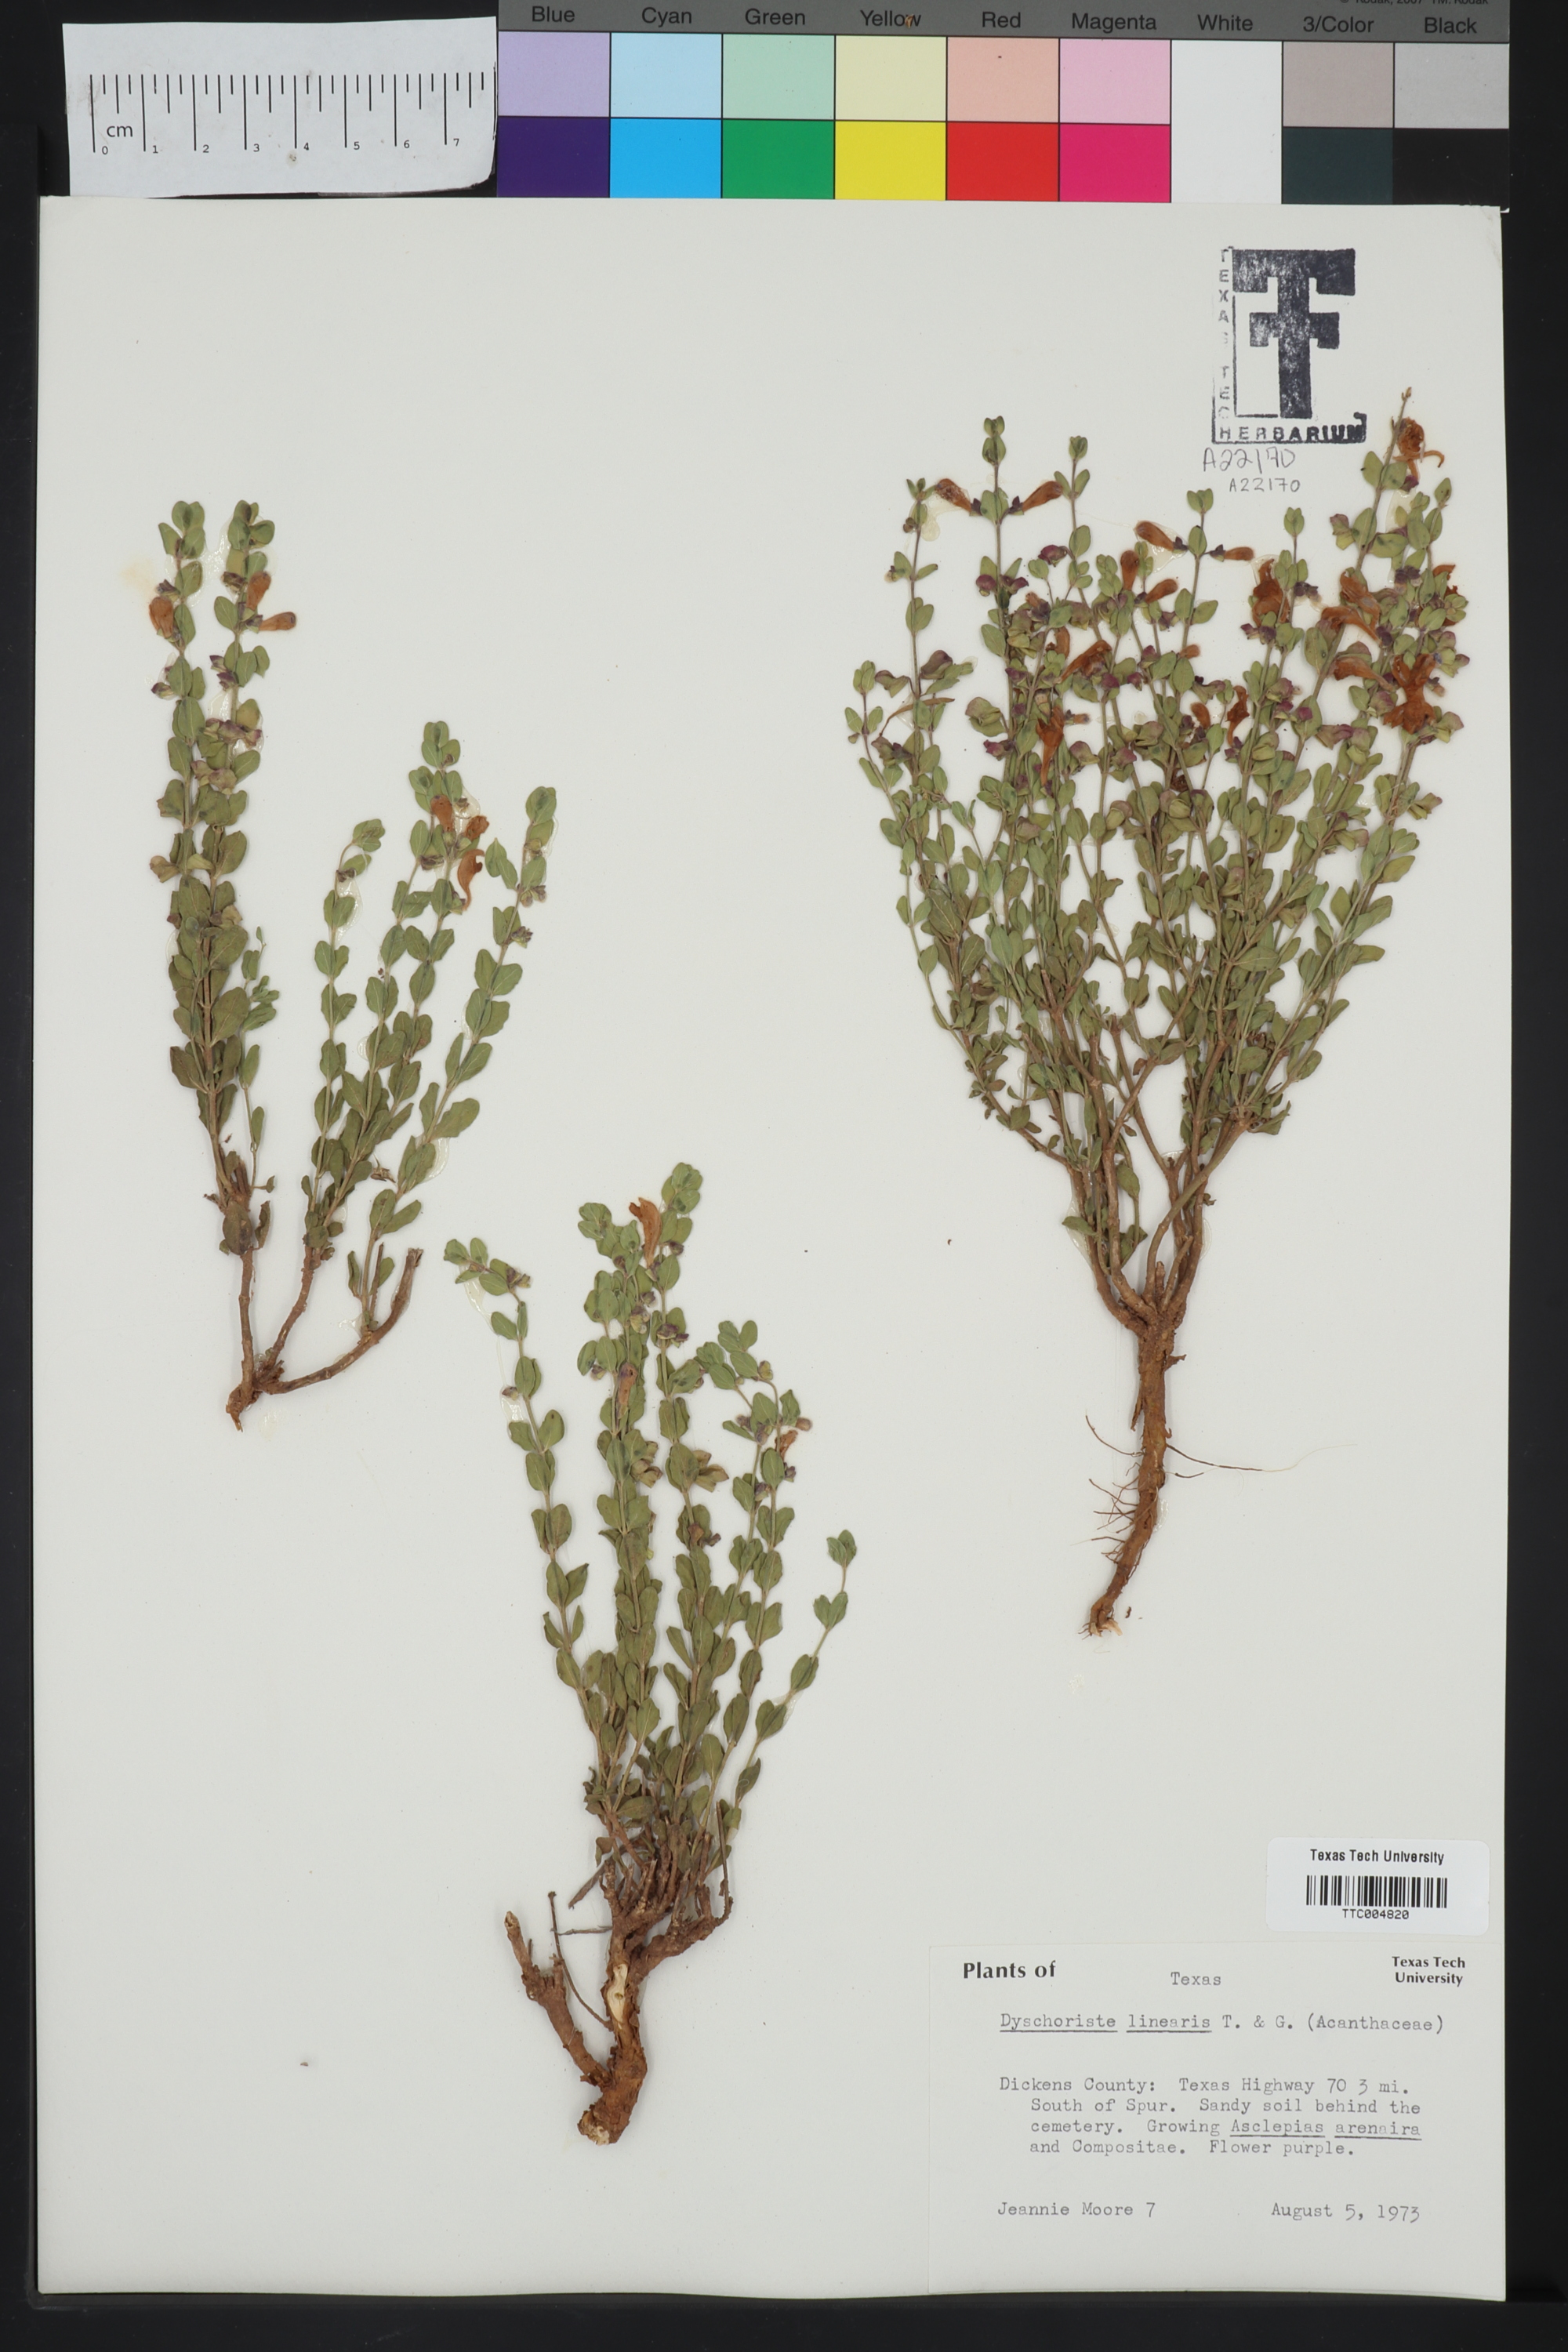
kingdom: Plantae
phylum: Tracheophyta
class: Magnoliopsida
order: Lamiales
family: Acanthaceae
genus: Dyschoriste
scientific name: Dyschoriste linearis
